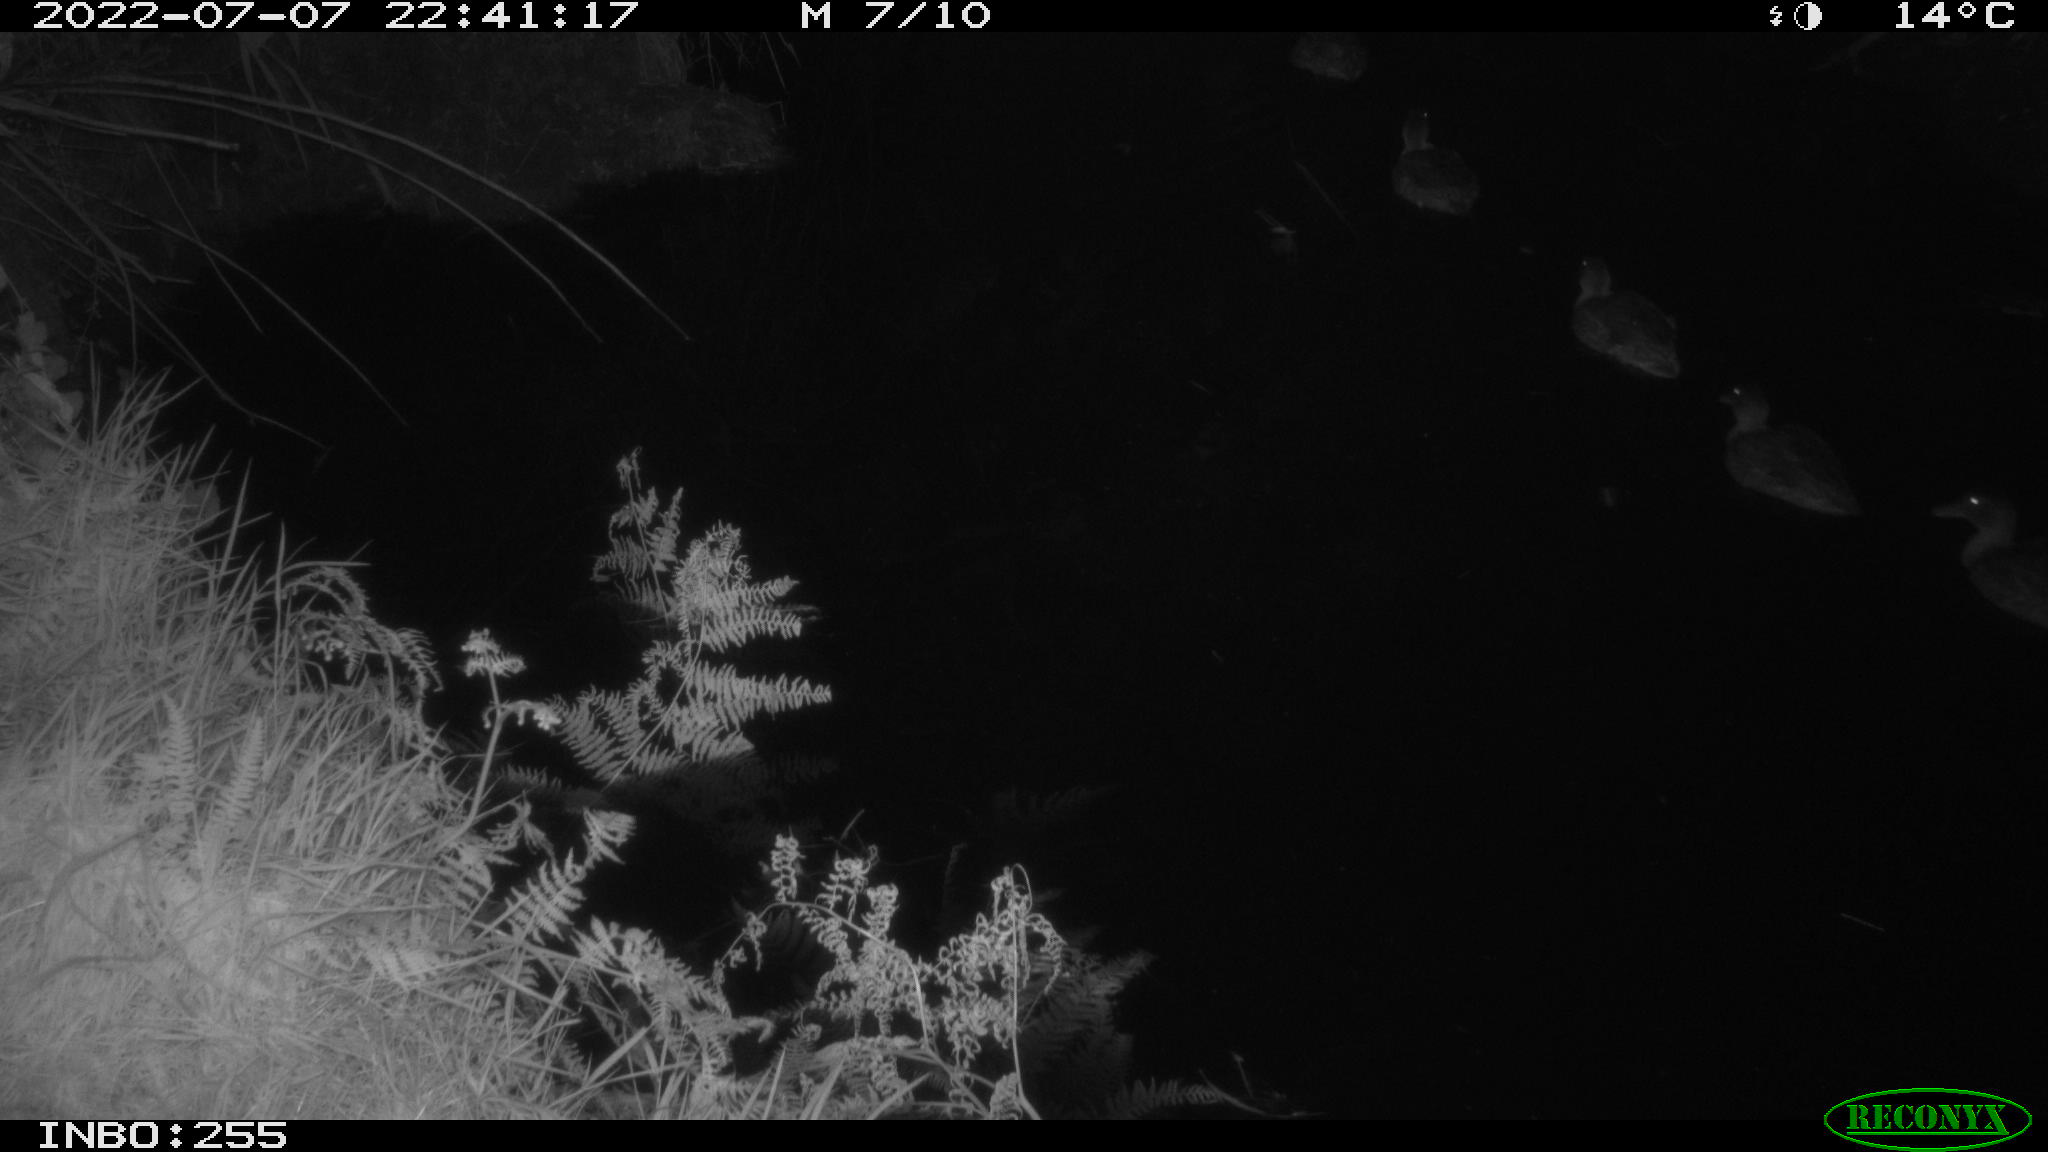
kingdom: Animalia
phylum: Chordata
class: Aves
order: Anseriformes
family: Anatidae
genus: Anas
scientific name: Anas platyrhynchos
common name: Mallard
